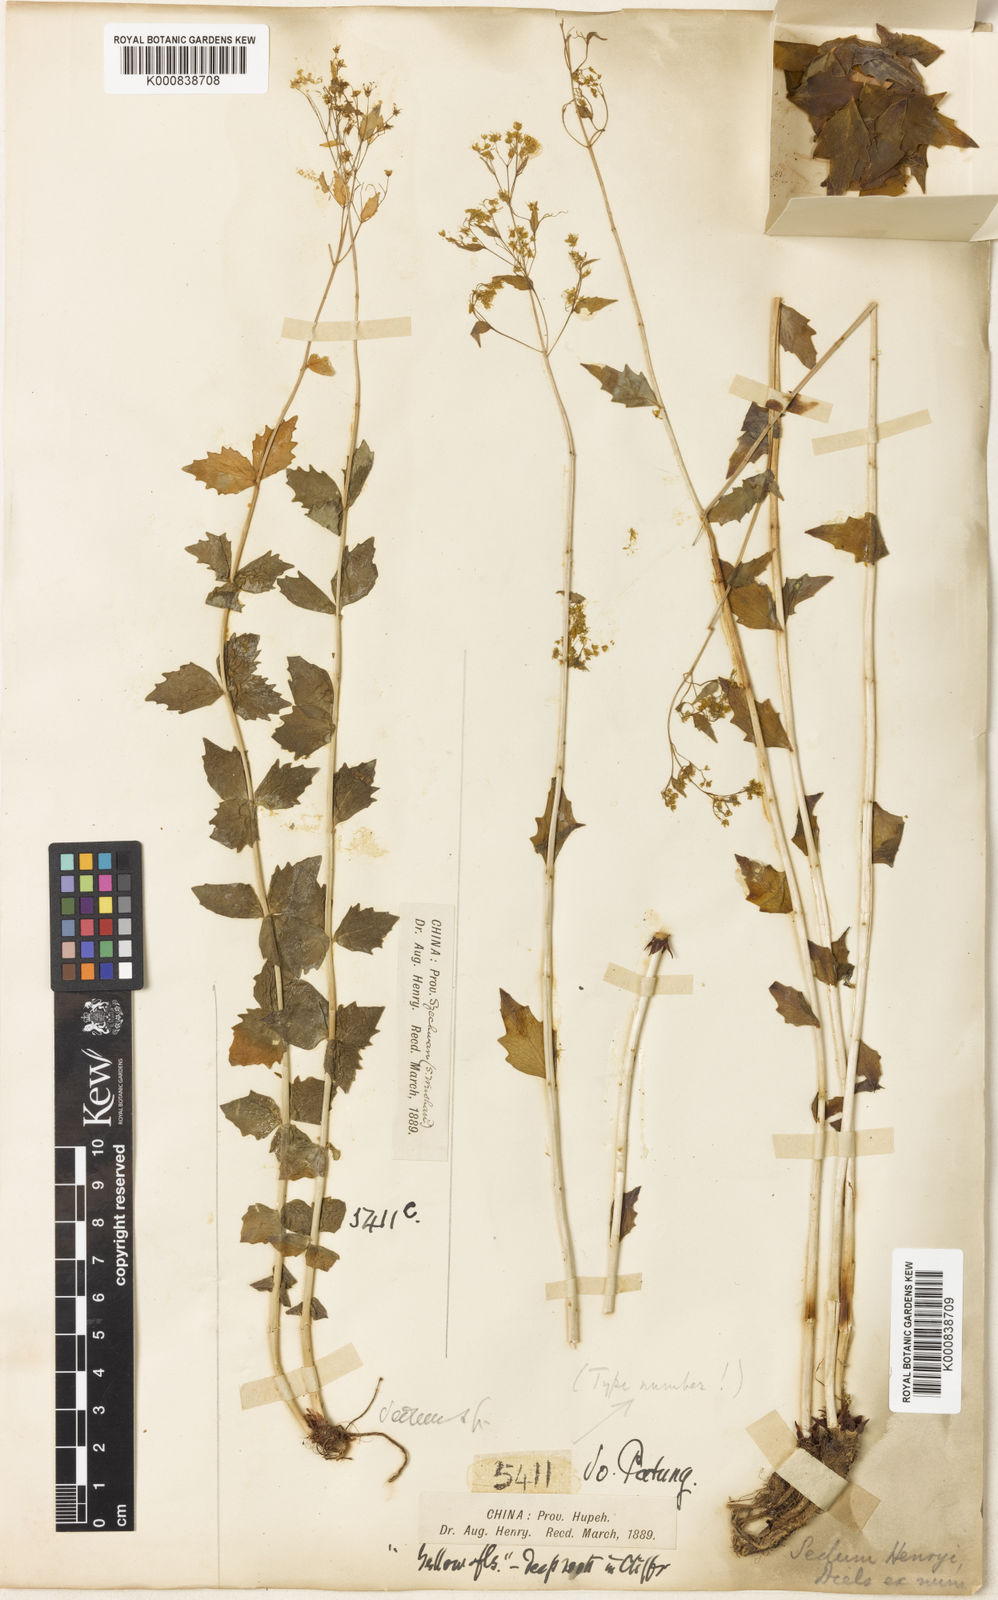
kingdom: Plantae
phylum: Tracheophyta
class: Magnoliopsida
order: Saxifragales
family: Crassulaceae
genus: Rhodiola
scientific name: Rhodiola yunnanensis
